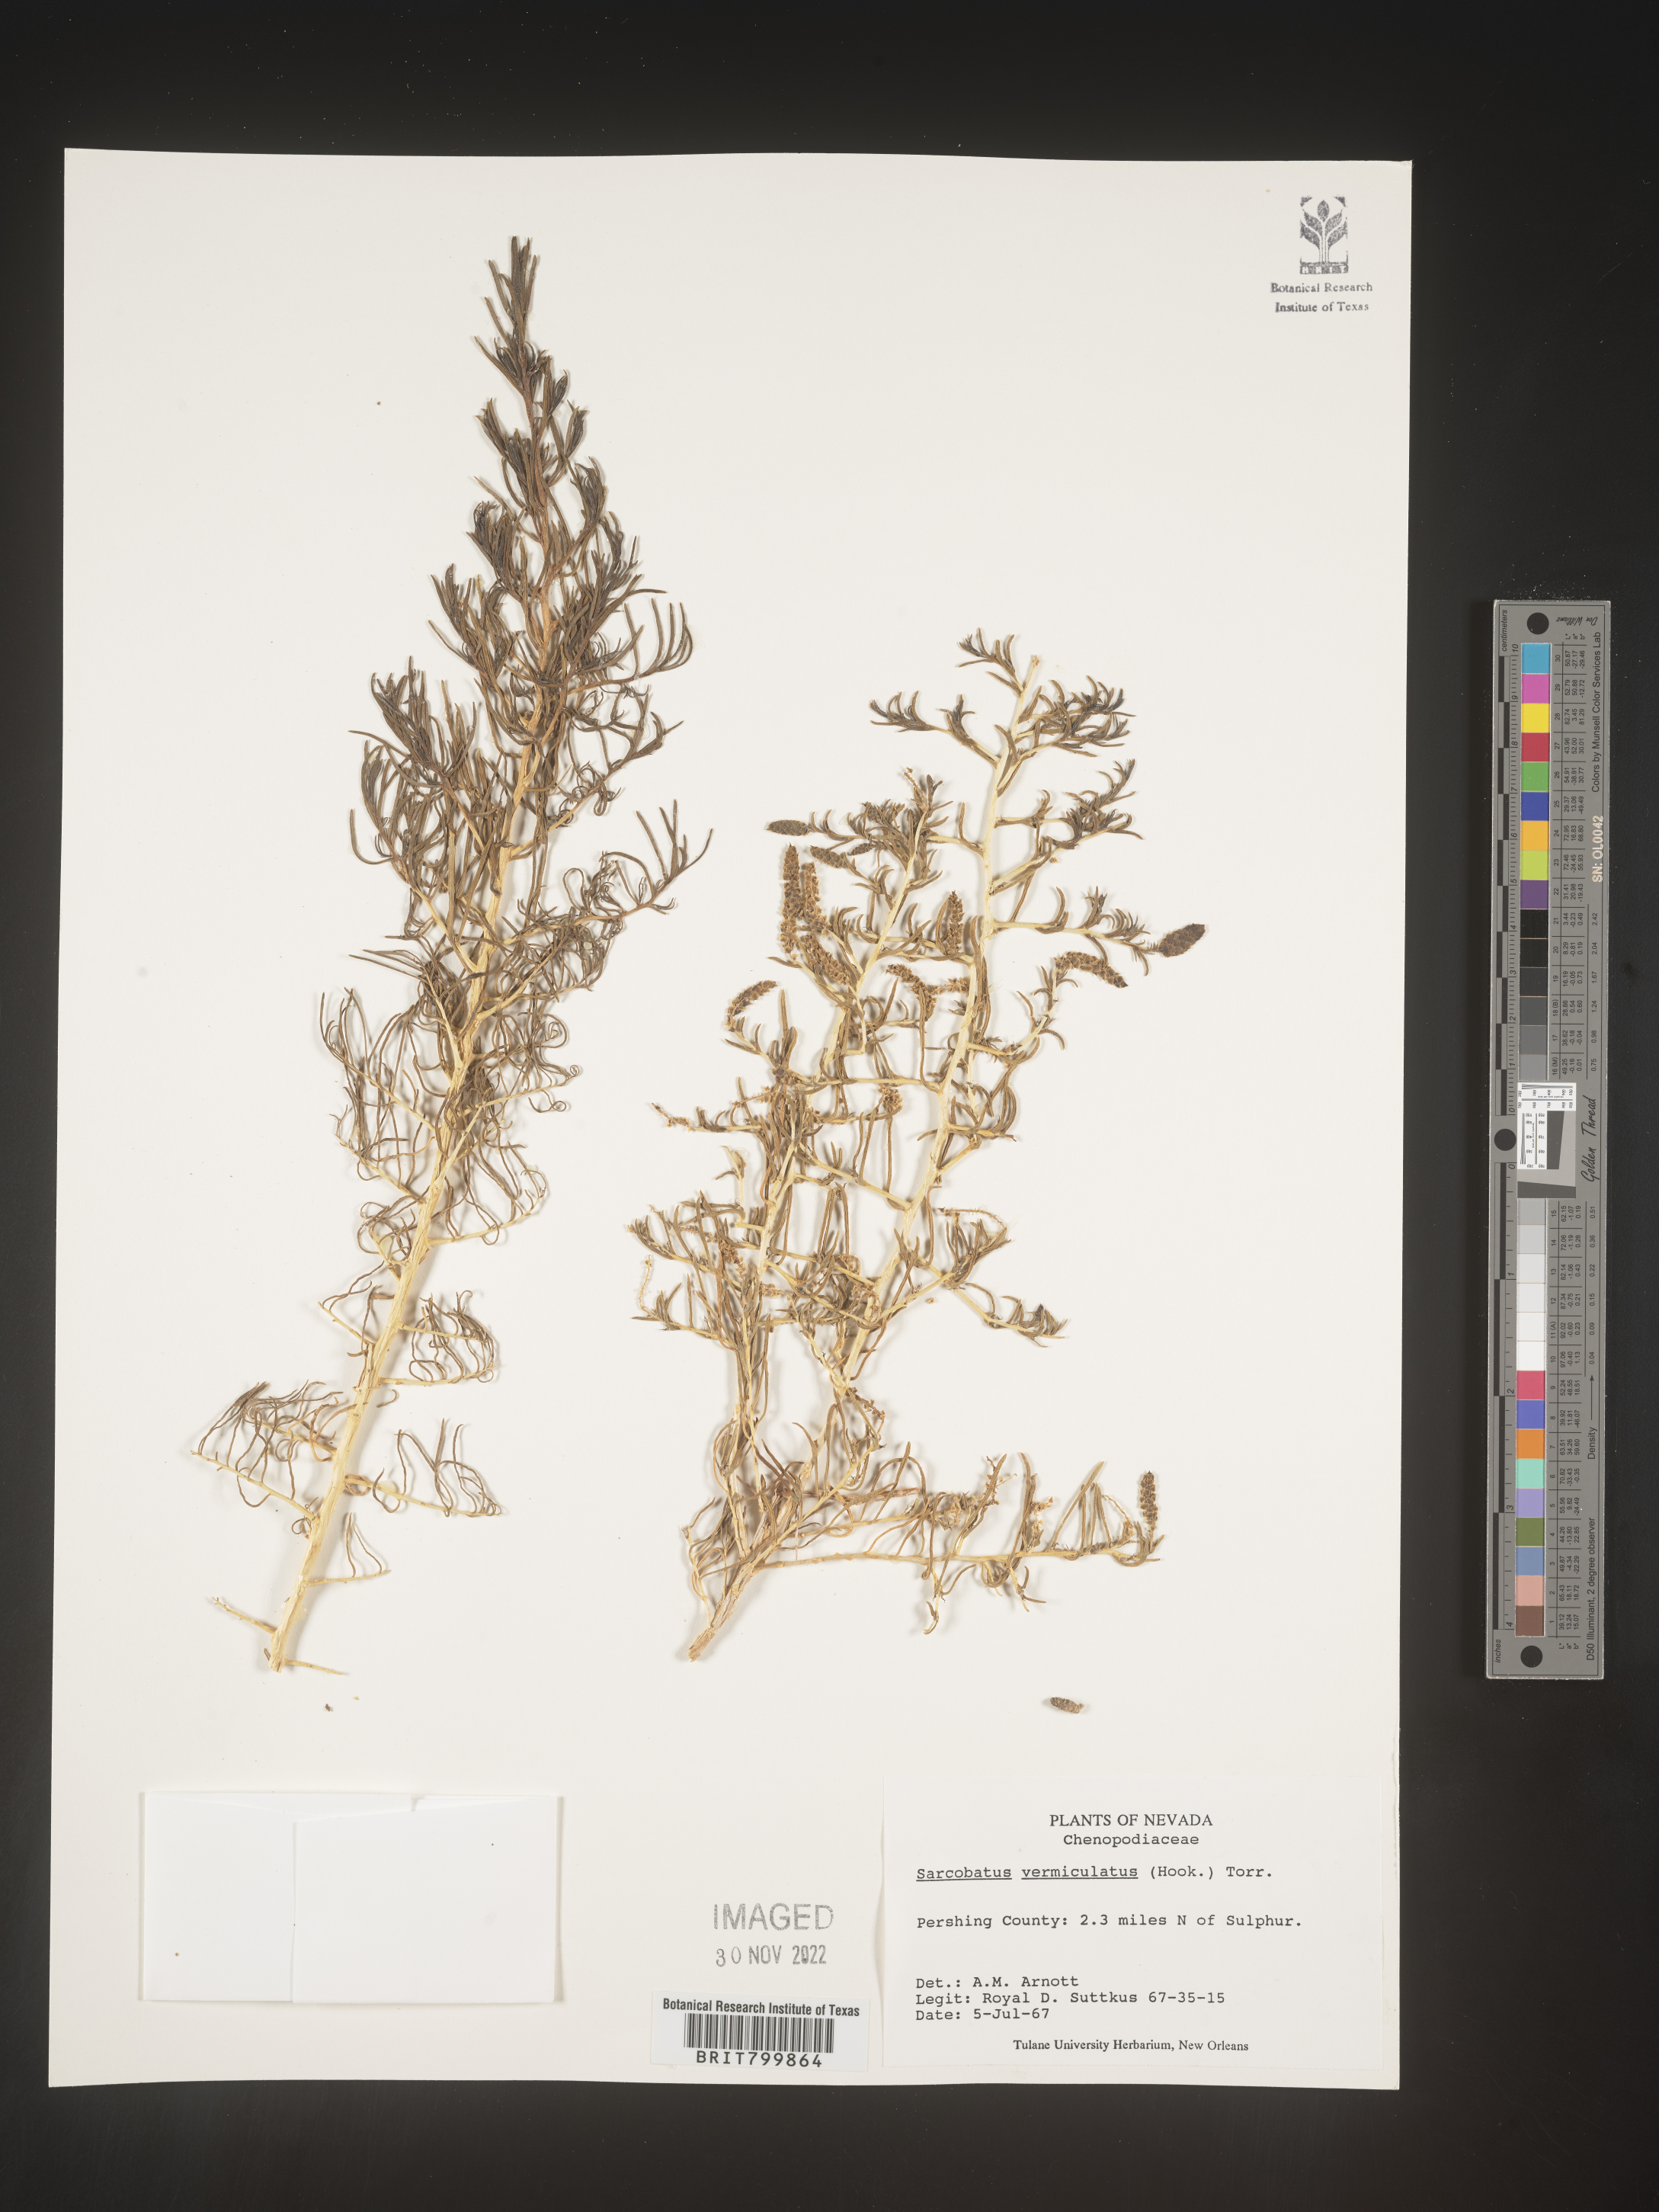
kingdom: Plantae
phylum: Tracheophyta
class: Magnoliopsida
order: Caryophyllales
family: Sarcobataceae
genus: Sarcobatus
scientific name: Sarcobatus vermiculatus
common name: Greasewood
